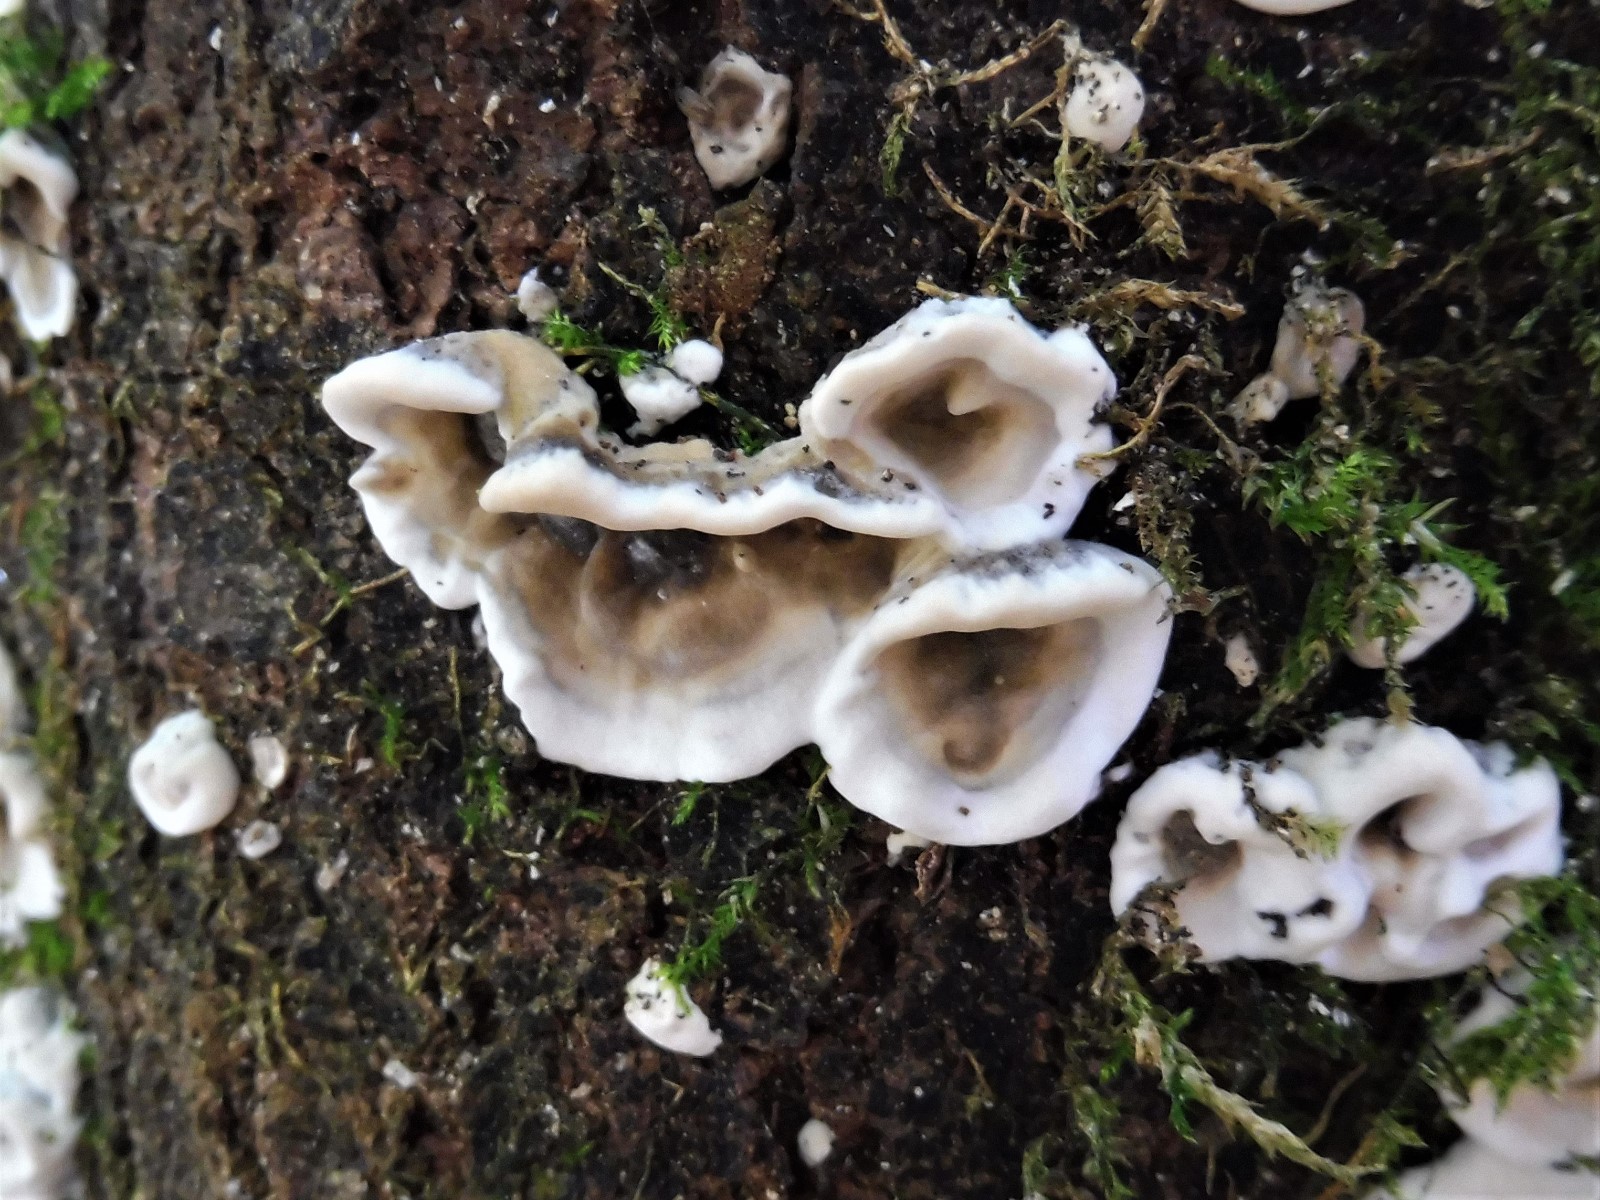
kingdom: Fungi
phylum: Basidiomycota
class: Agaricomycetes
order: Polyporales
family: Phanerochaetaceae
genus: Bjerkandera
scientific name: Bjerkandera adusta
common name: sveden sodporesvamp
